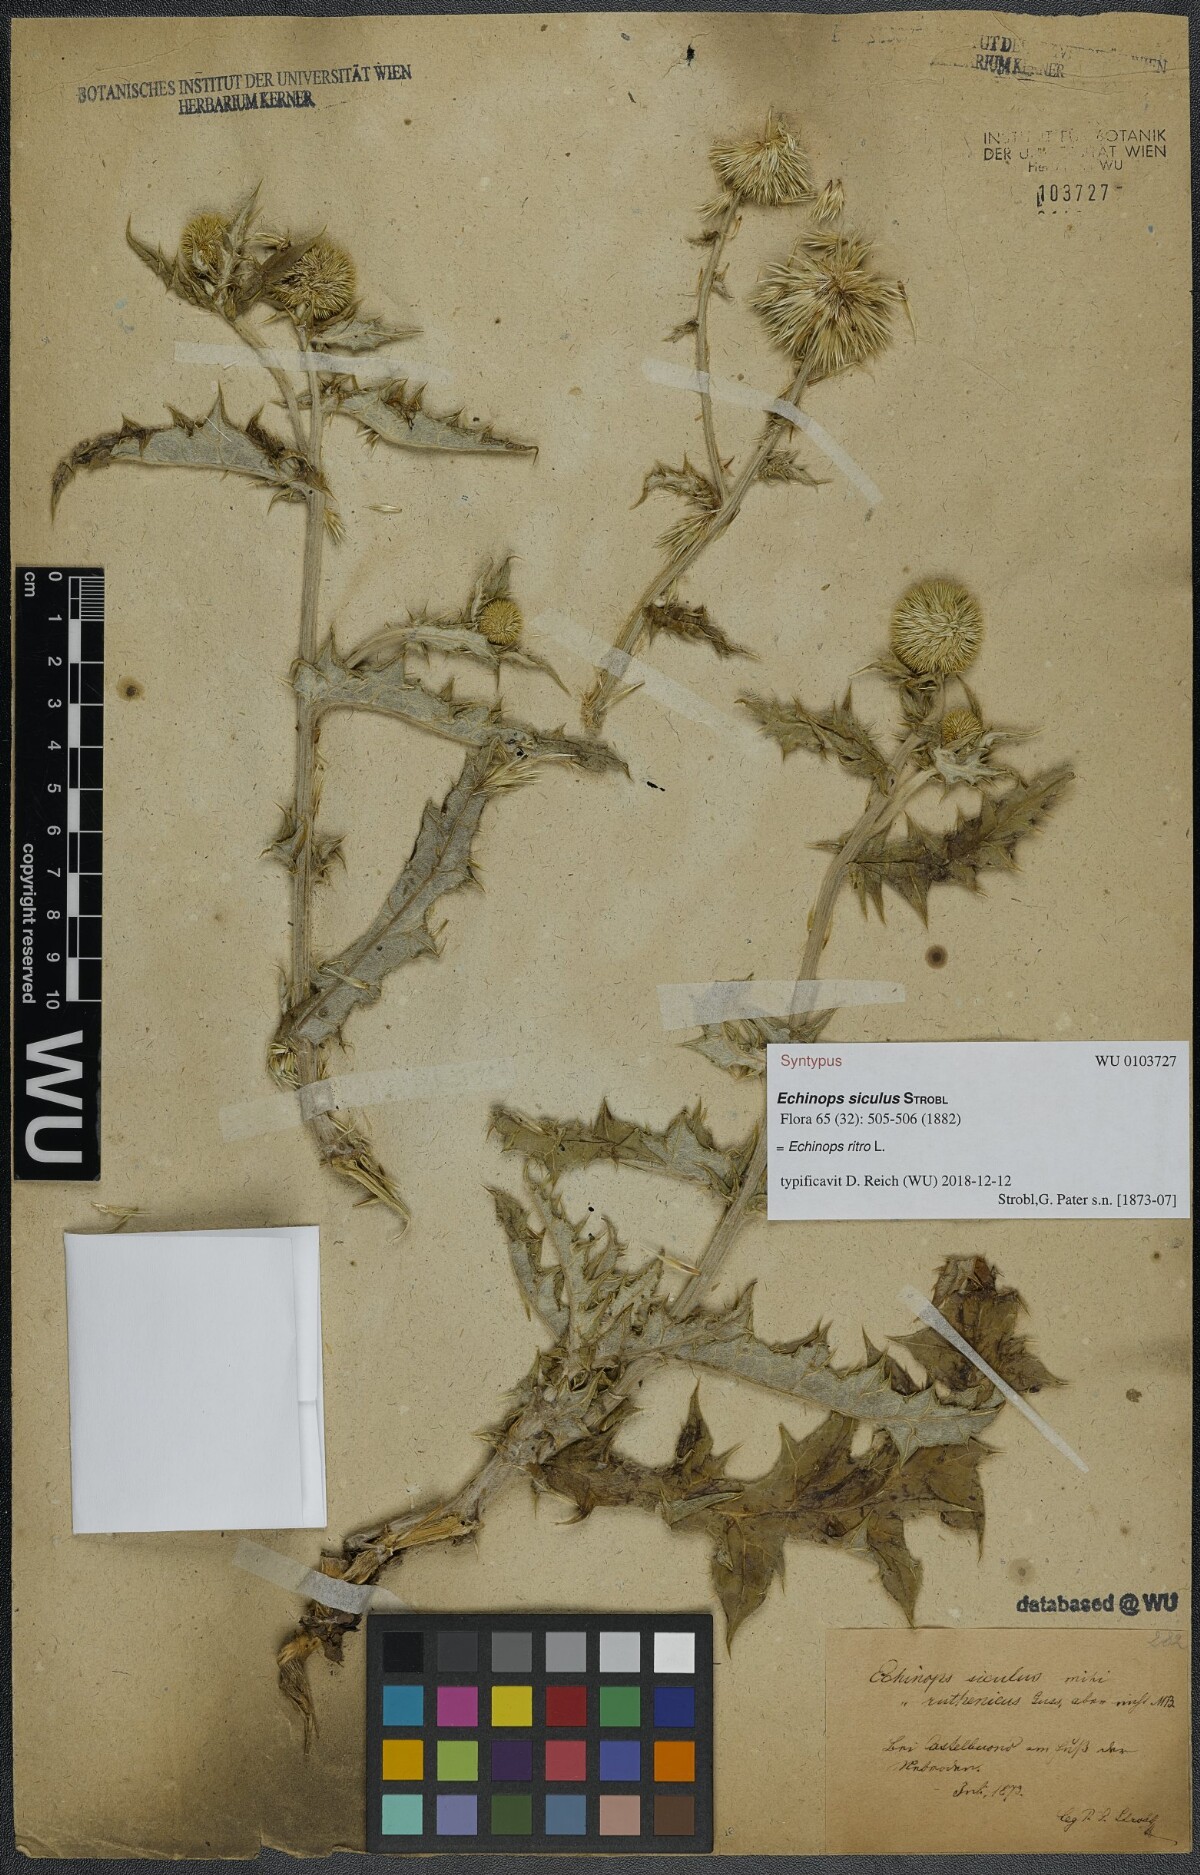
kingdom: Plantae
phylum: Tracheophyta
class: Magnoliopsida
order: Asterales
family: Asteraceae
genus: Echinops
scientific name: Echinops ritro
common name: Globe thistle
